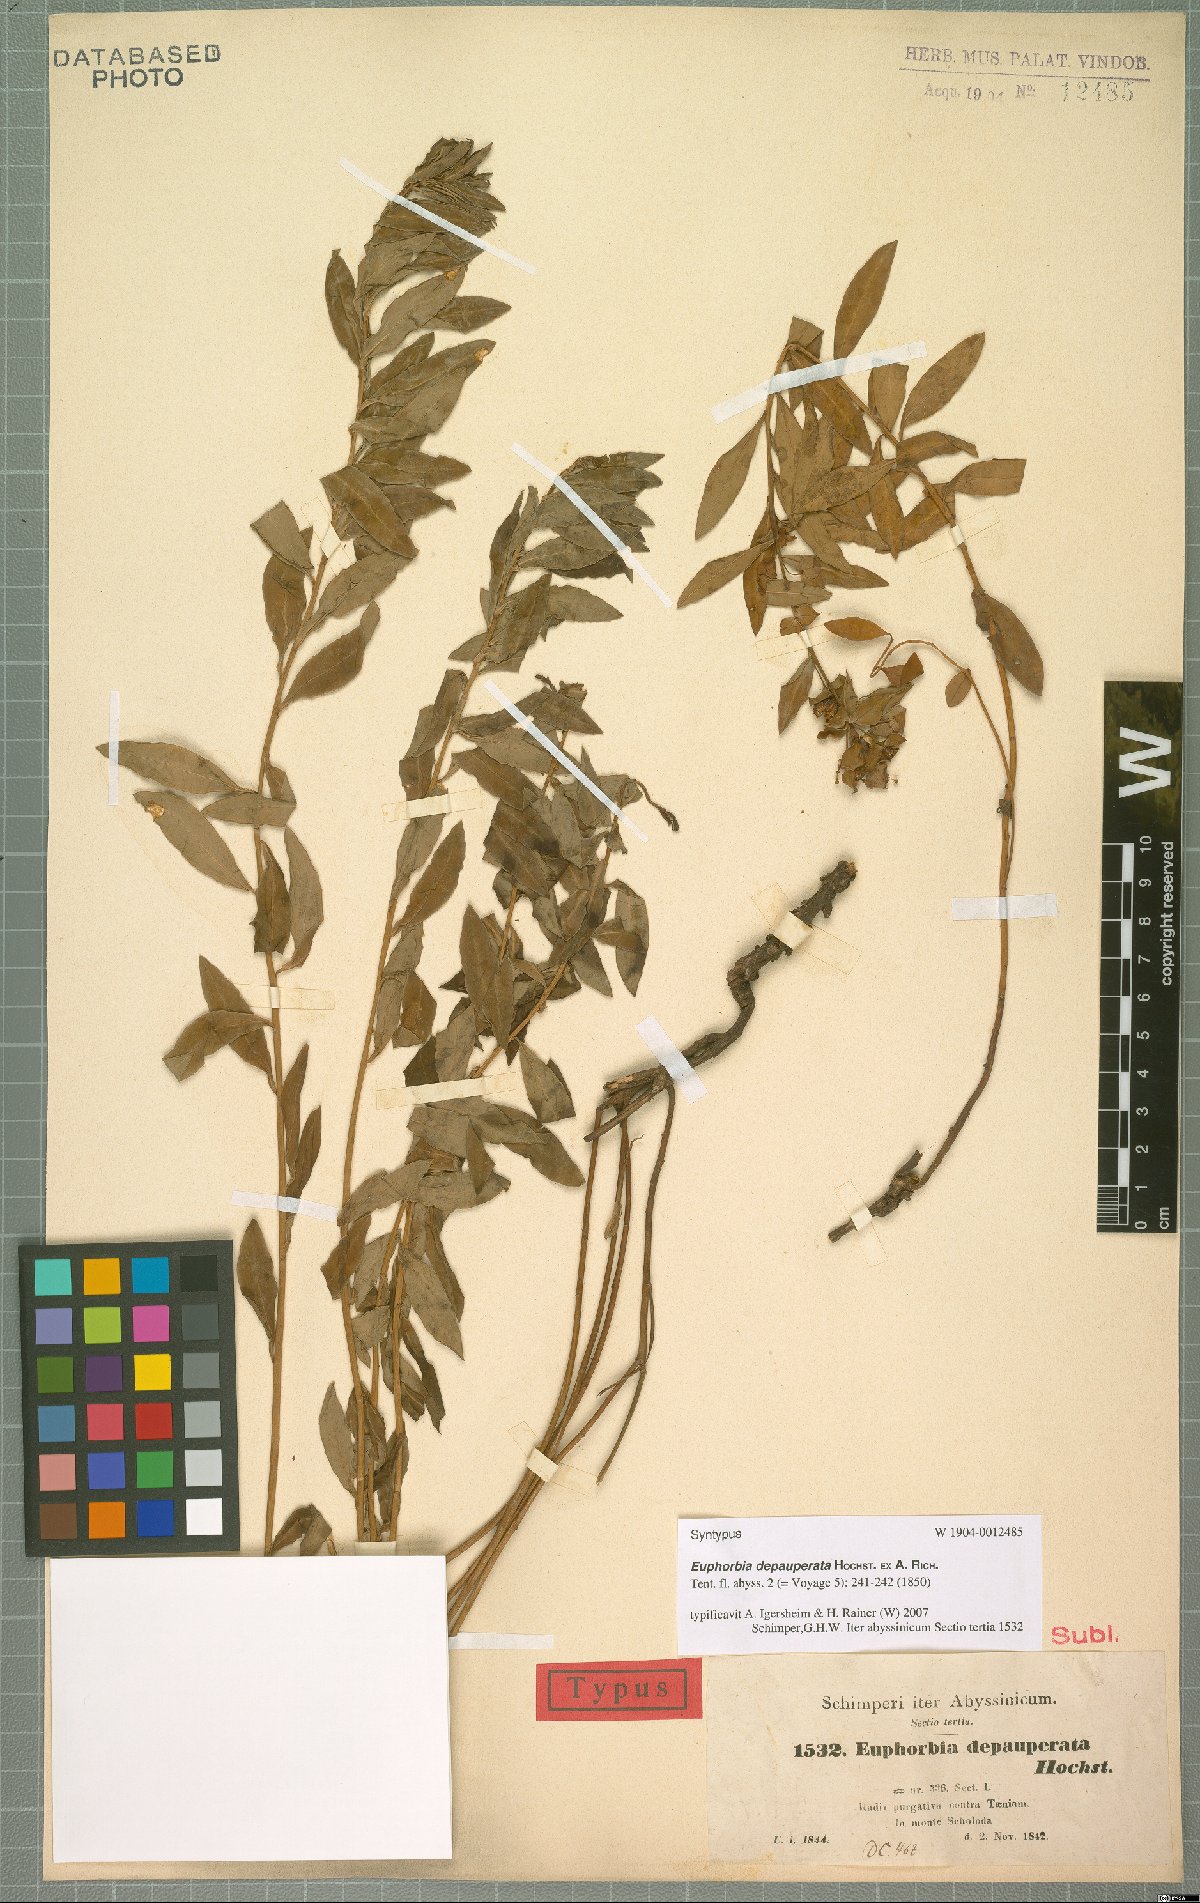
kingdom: Plantae
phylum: Tracheophyta
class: Magnoliopsida
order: Malpighiales
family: Euphorbiaceae
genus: Euphorbia
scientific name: Euphorbia depauperata
